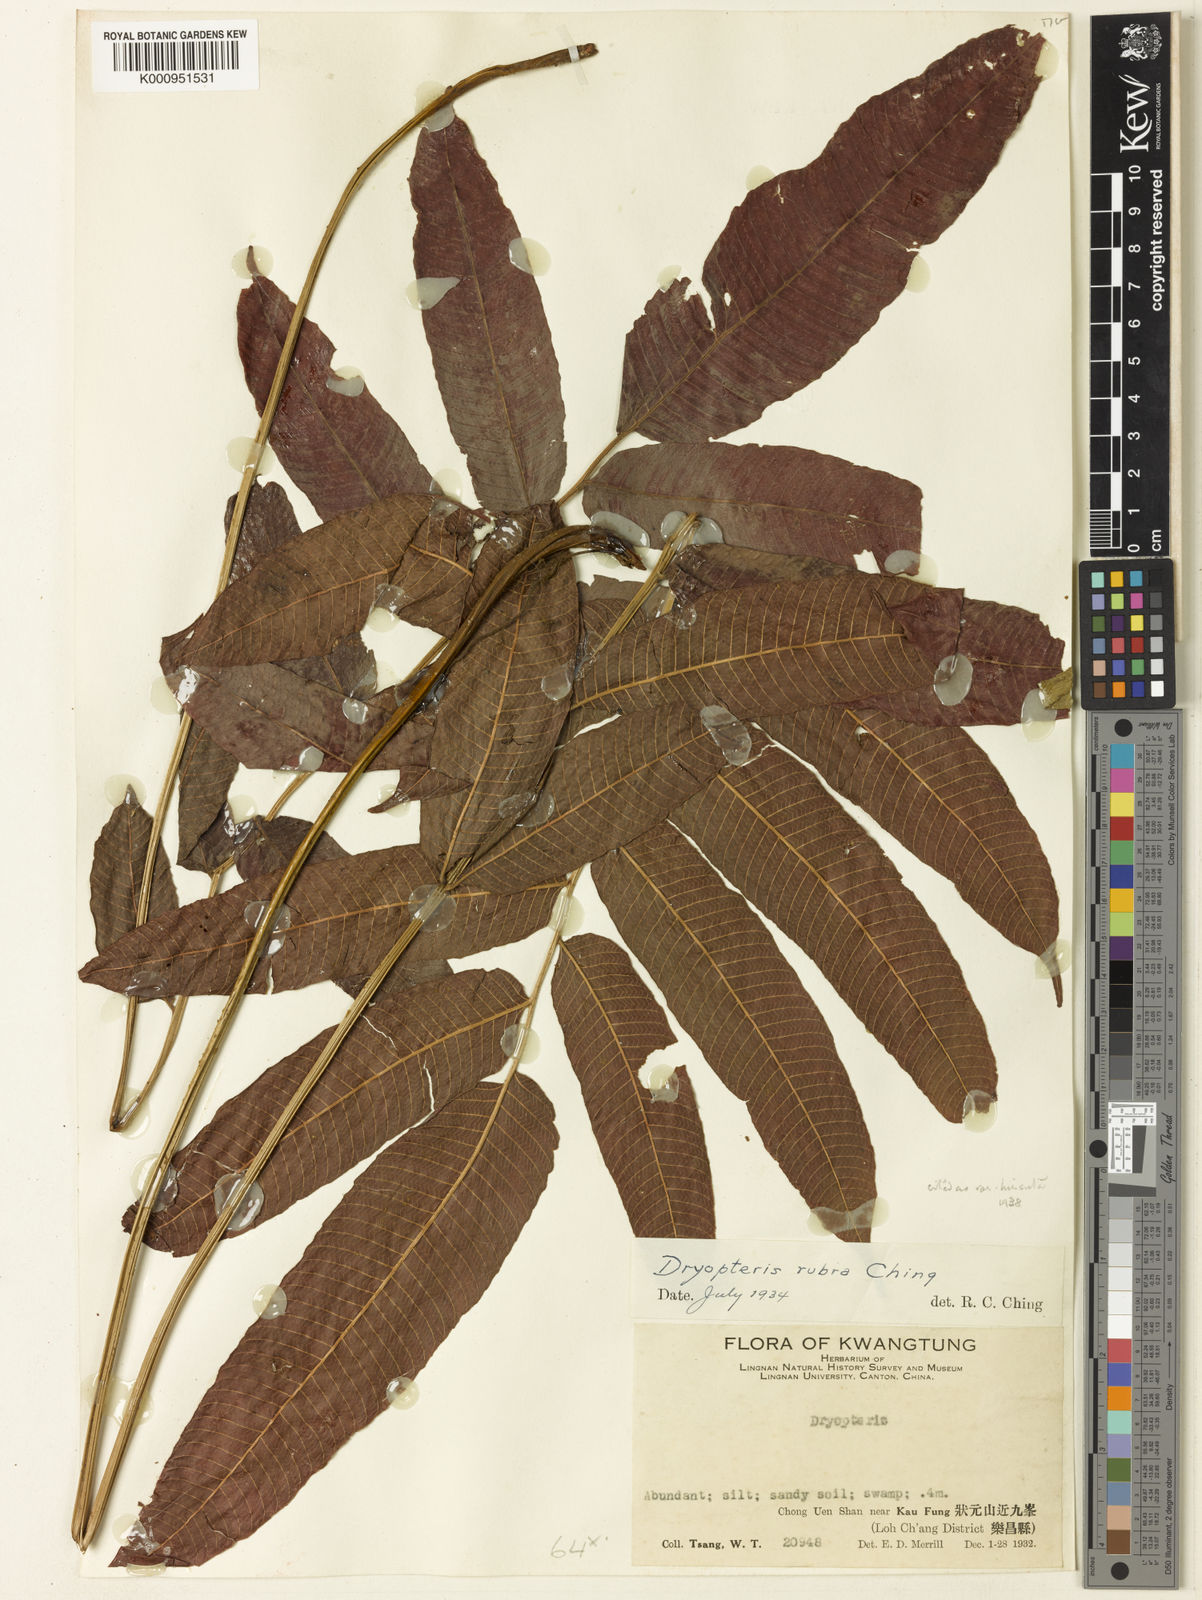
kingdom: Plantae
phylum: Tracheophyta
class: Polypodiopsida
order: Polypodiales
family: Thelypteridaceae
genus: Menisciopsis
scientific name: Menisciopsis lakhimpurensis
